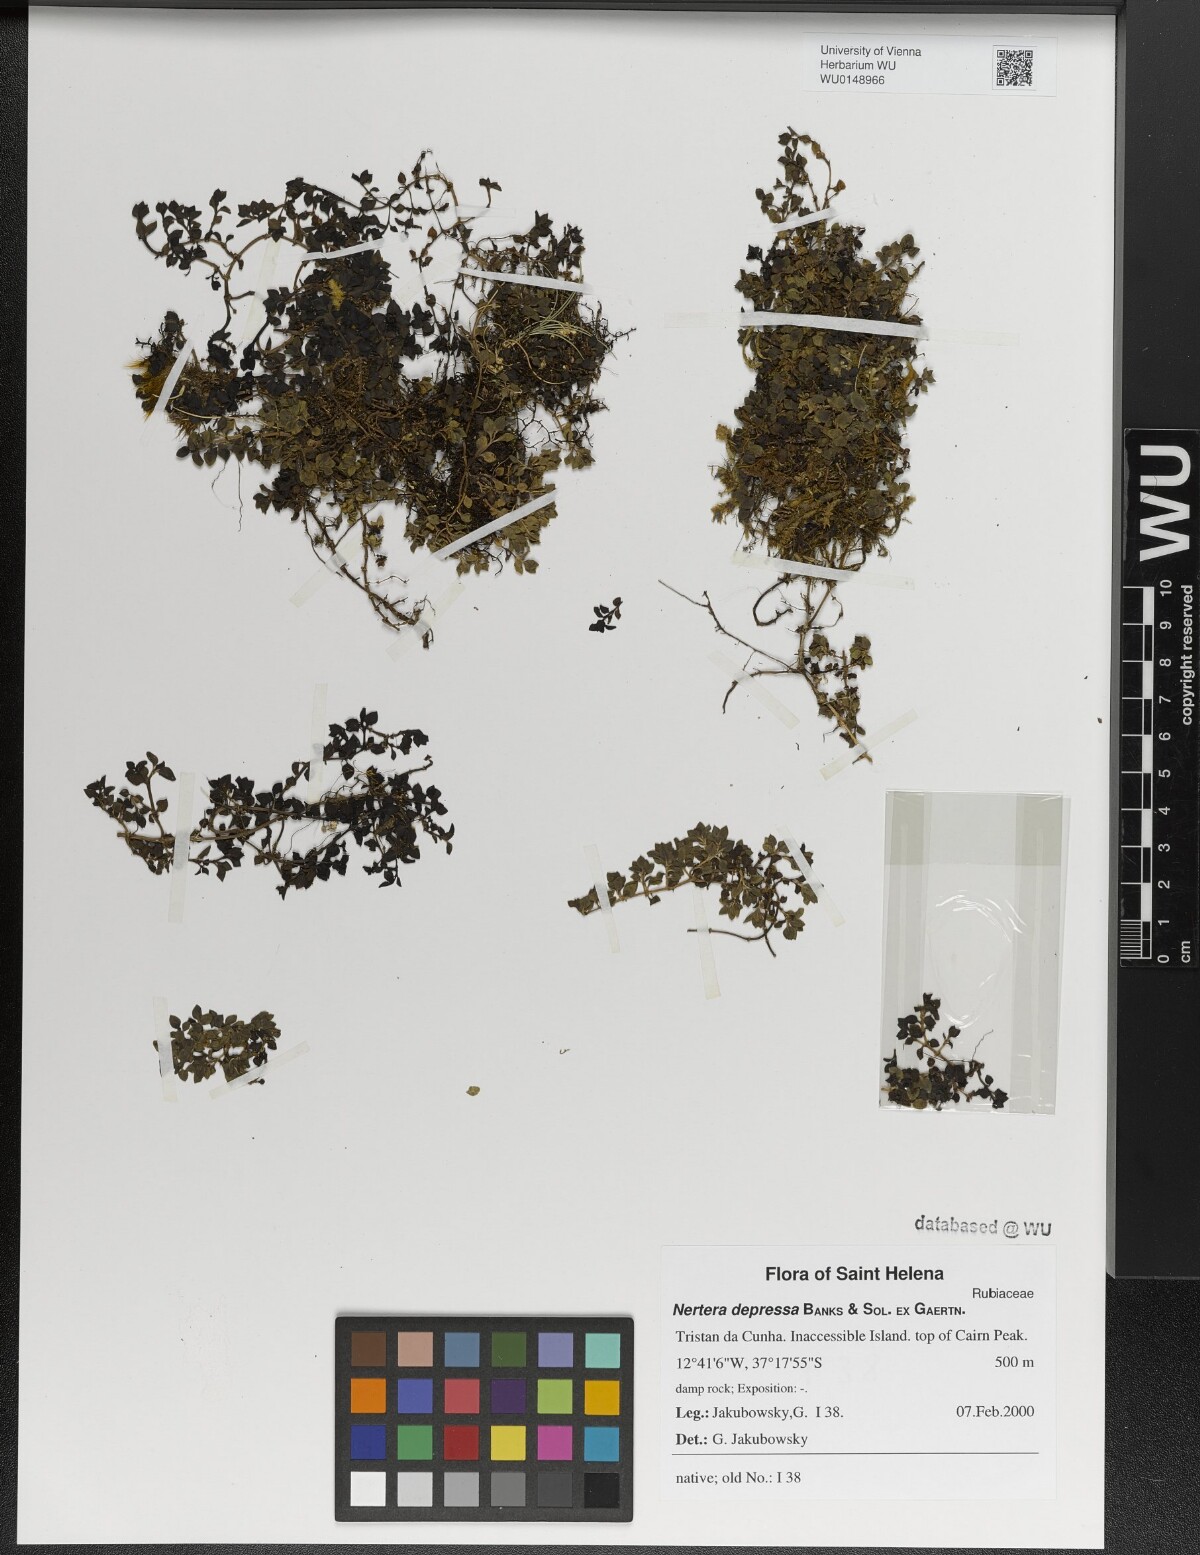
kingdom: Plantae
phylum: Tracheophyta
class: Magnoliopsida
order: Gentianales
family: Rubiaceae
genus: Nertera
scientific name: Nertera granadensis
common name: Beadplant
